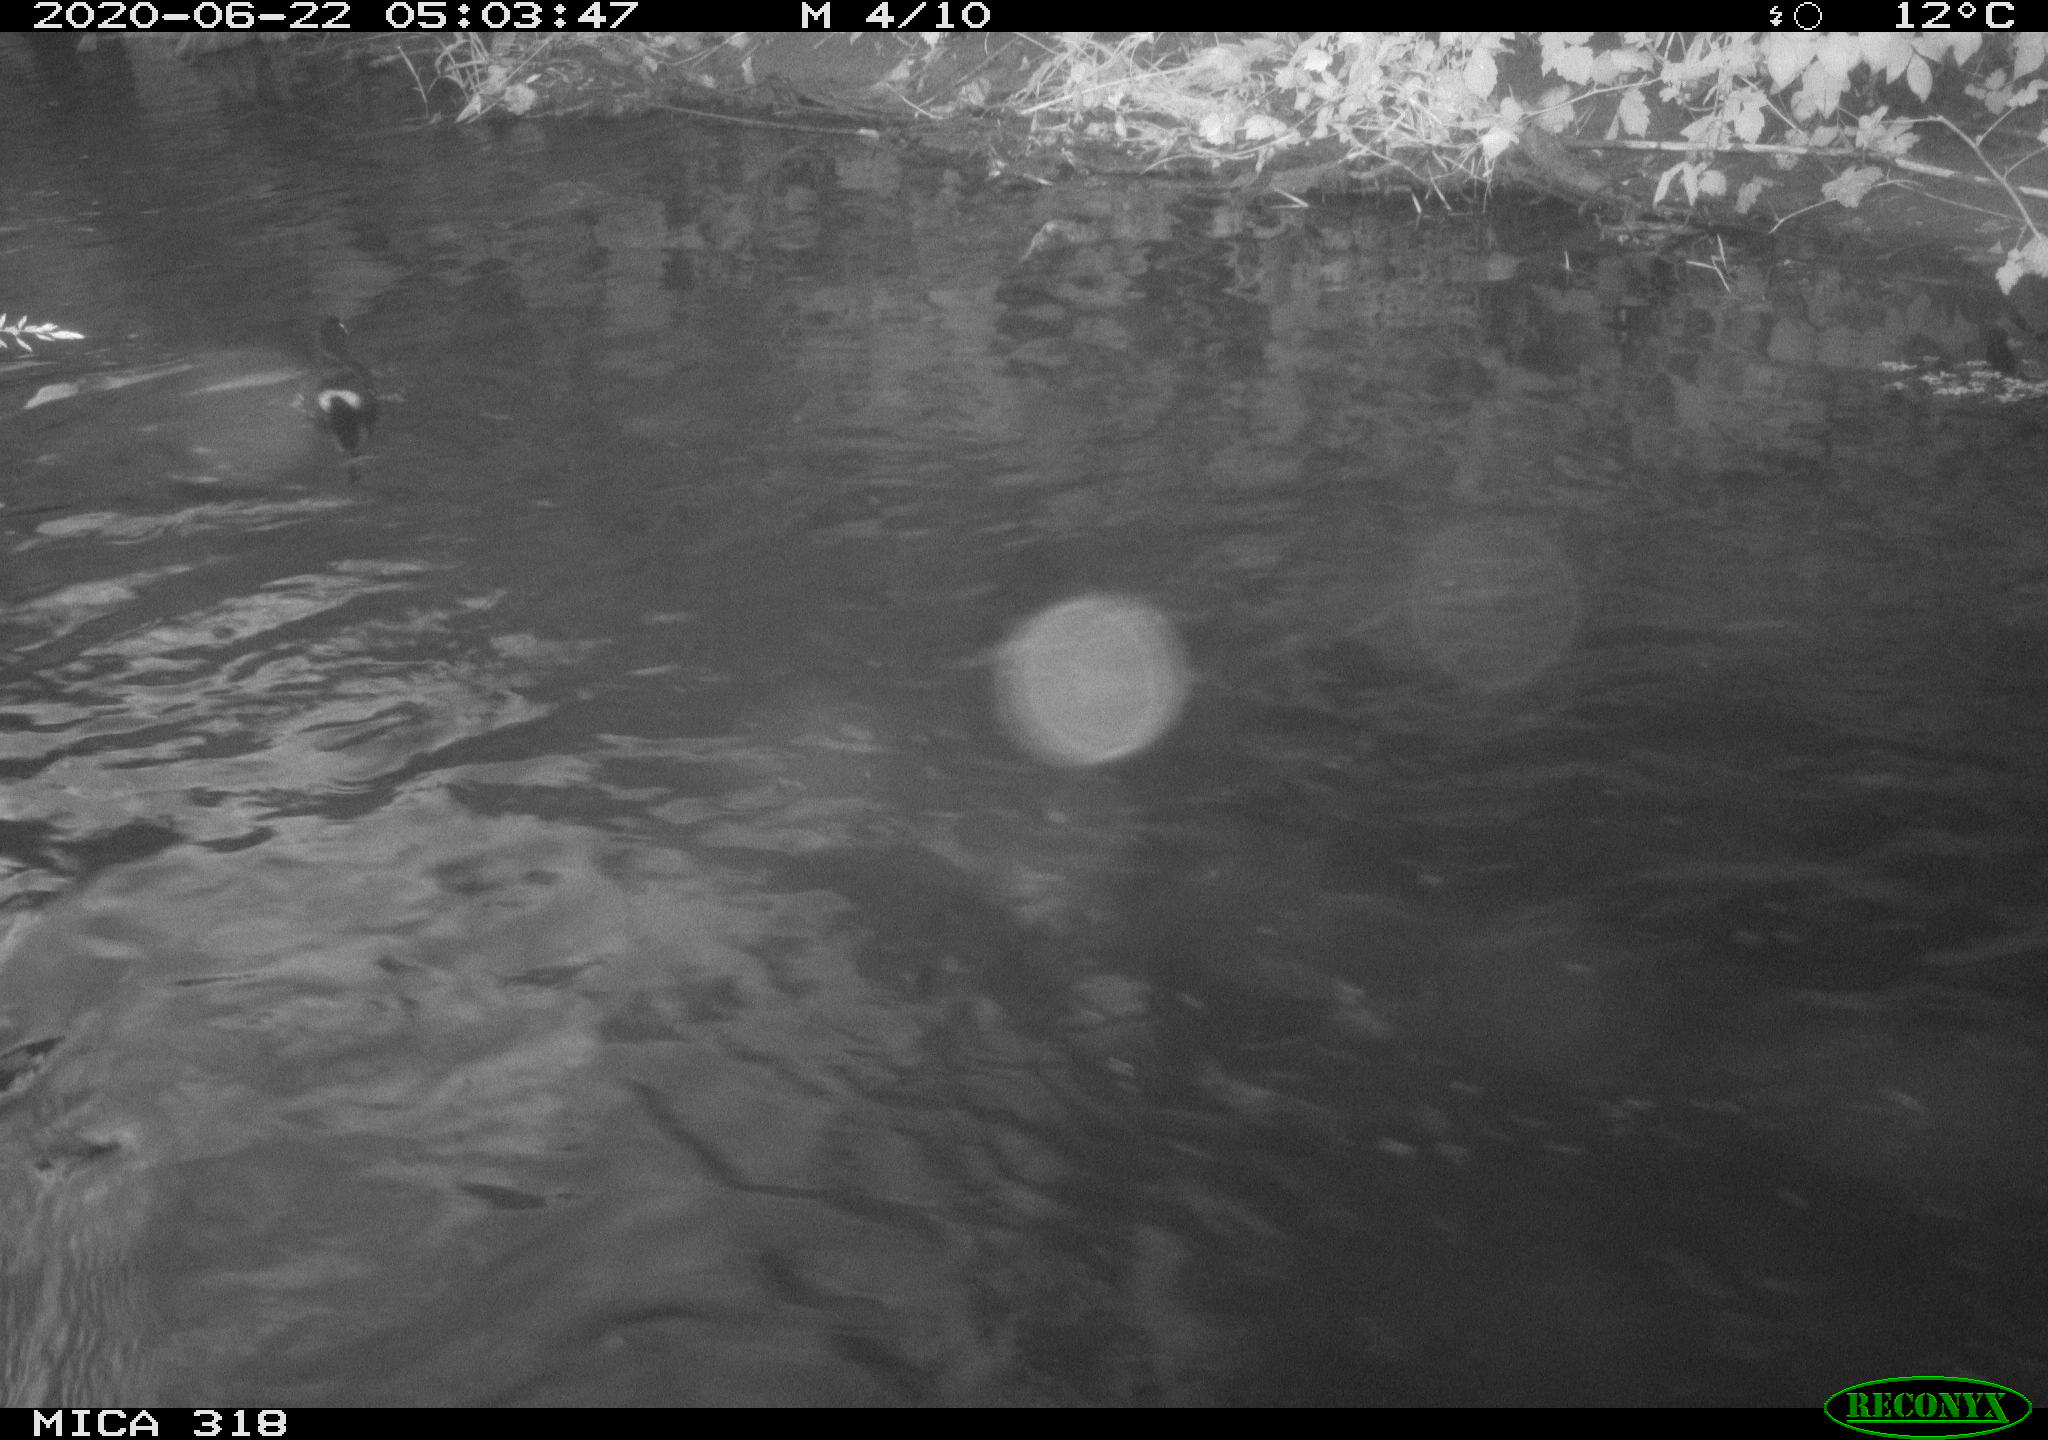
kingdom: Animalia
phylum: Chordata
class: Aves
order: Anseriformes
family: Anatidae
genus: Anas
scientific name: Anas platyrhynchos
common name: Mallard
